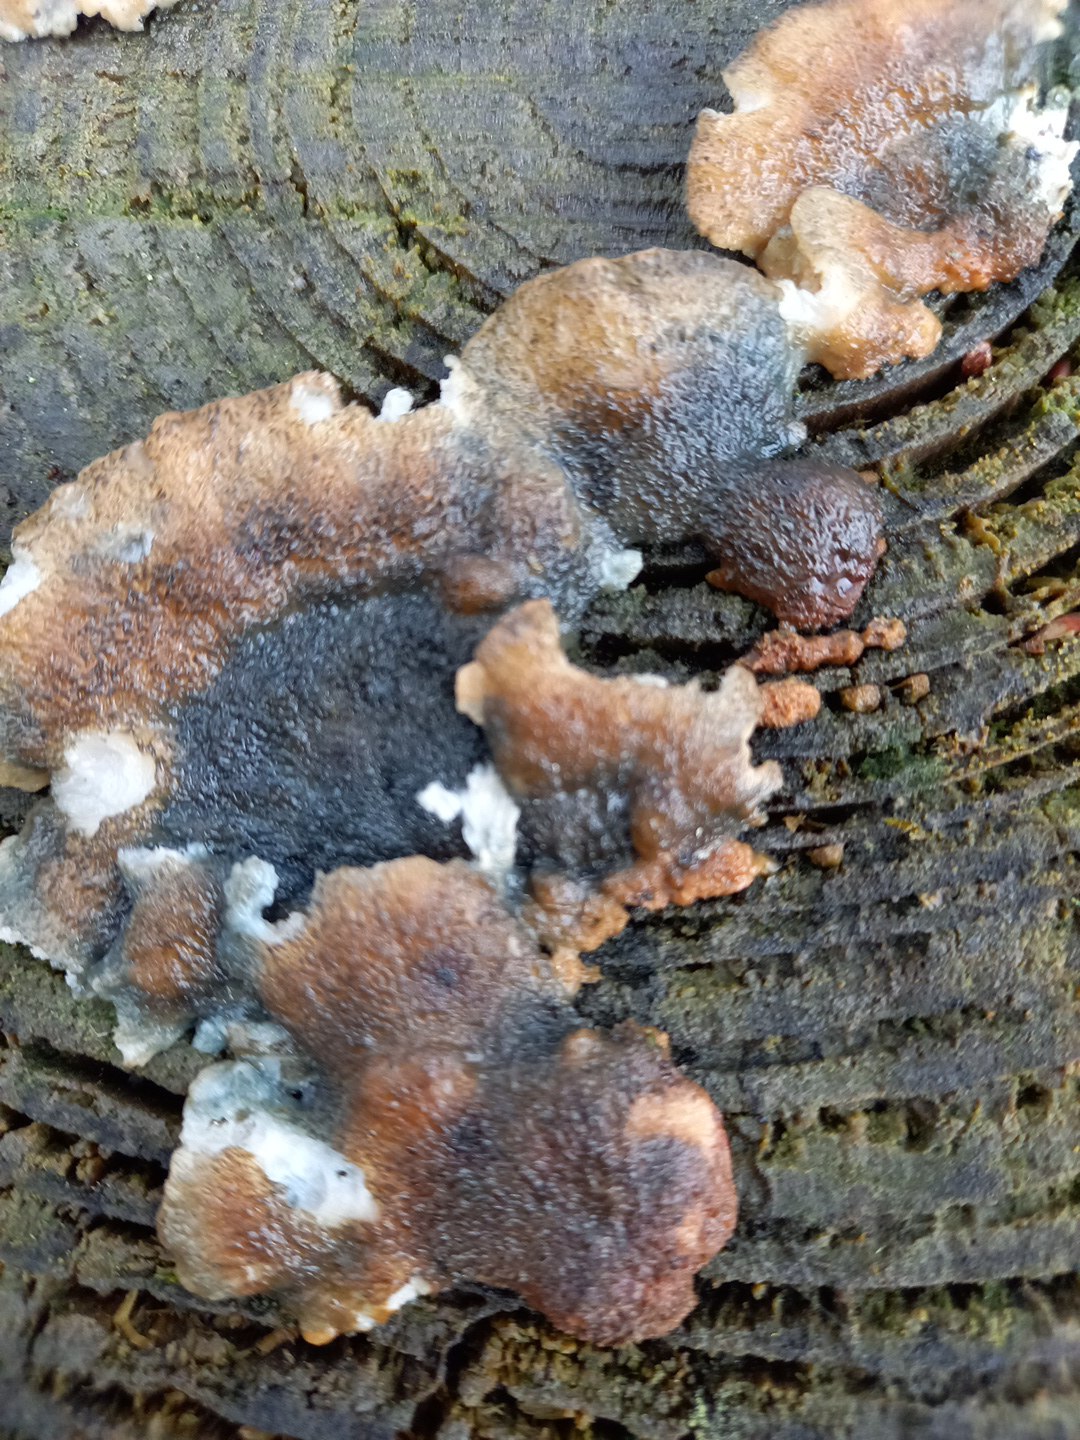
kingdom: Fungi
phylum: Basidiomycota
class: Agaricomycetes
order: Polyporales
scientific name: Polyporales
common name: poresvampordenen
